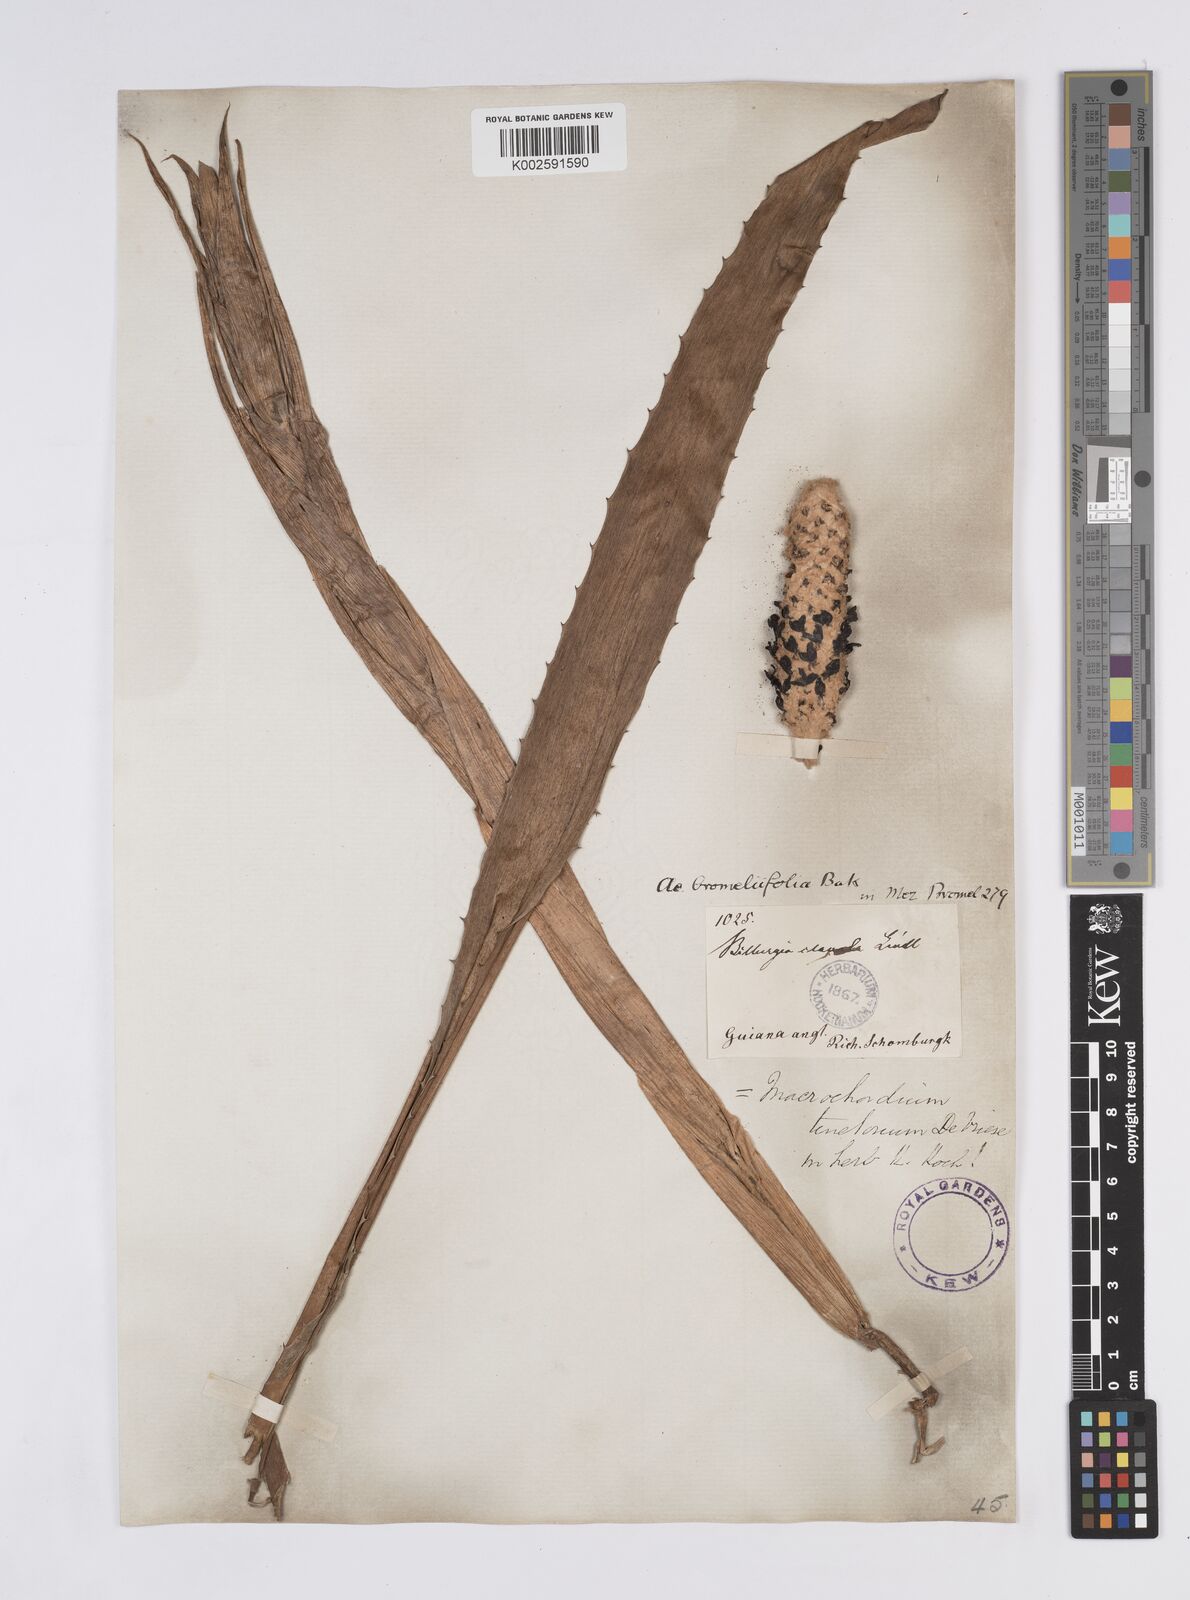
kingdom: Plantae
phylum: Tracheophyta
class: Liliopsida
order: Poales
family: Bromeliaceae
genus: Aechmea
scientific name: Aechmea bromeliifolia
